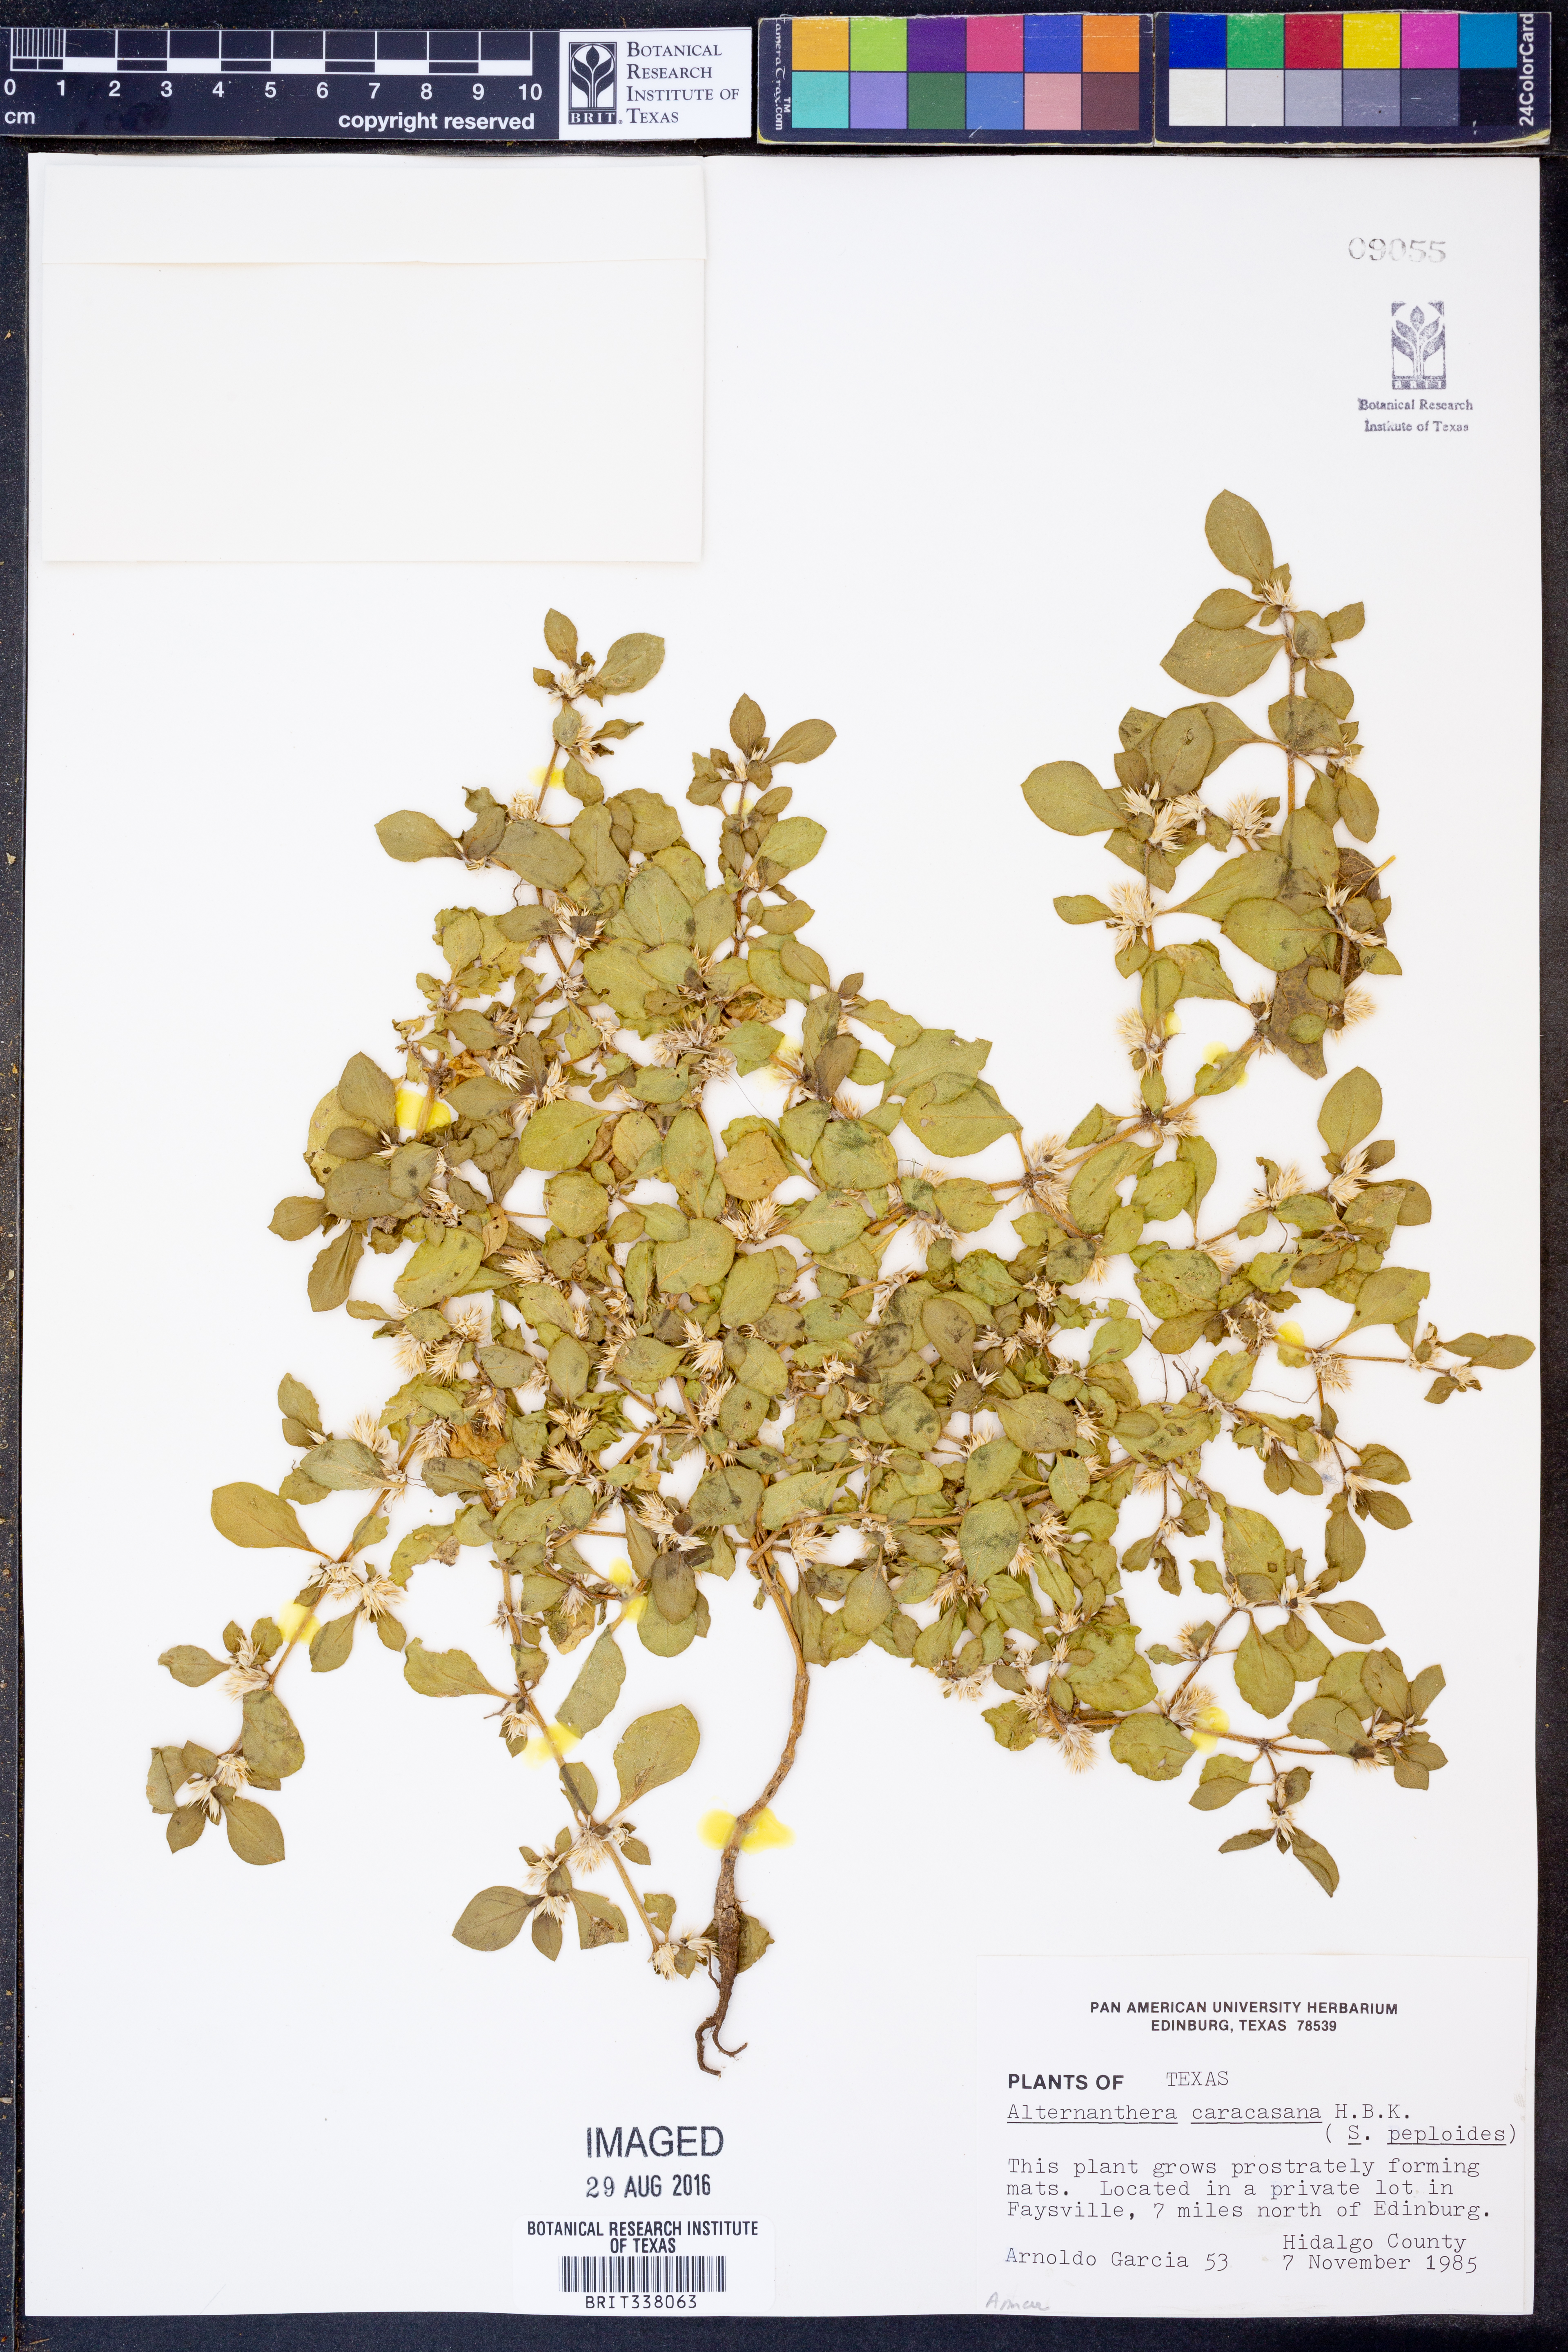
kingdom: Plantae
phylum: Tracheophyta
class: Magnoliopsida
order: Caryophyllales
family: Amaranthaceae
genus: Alternanthera
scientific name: Alternanthera caracasana
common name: Washerwoman
